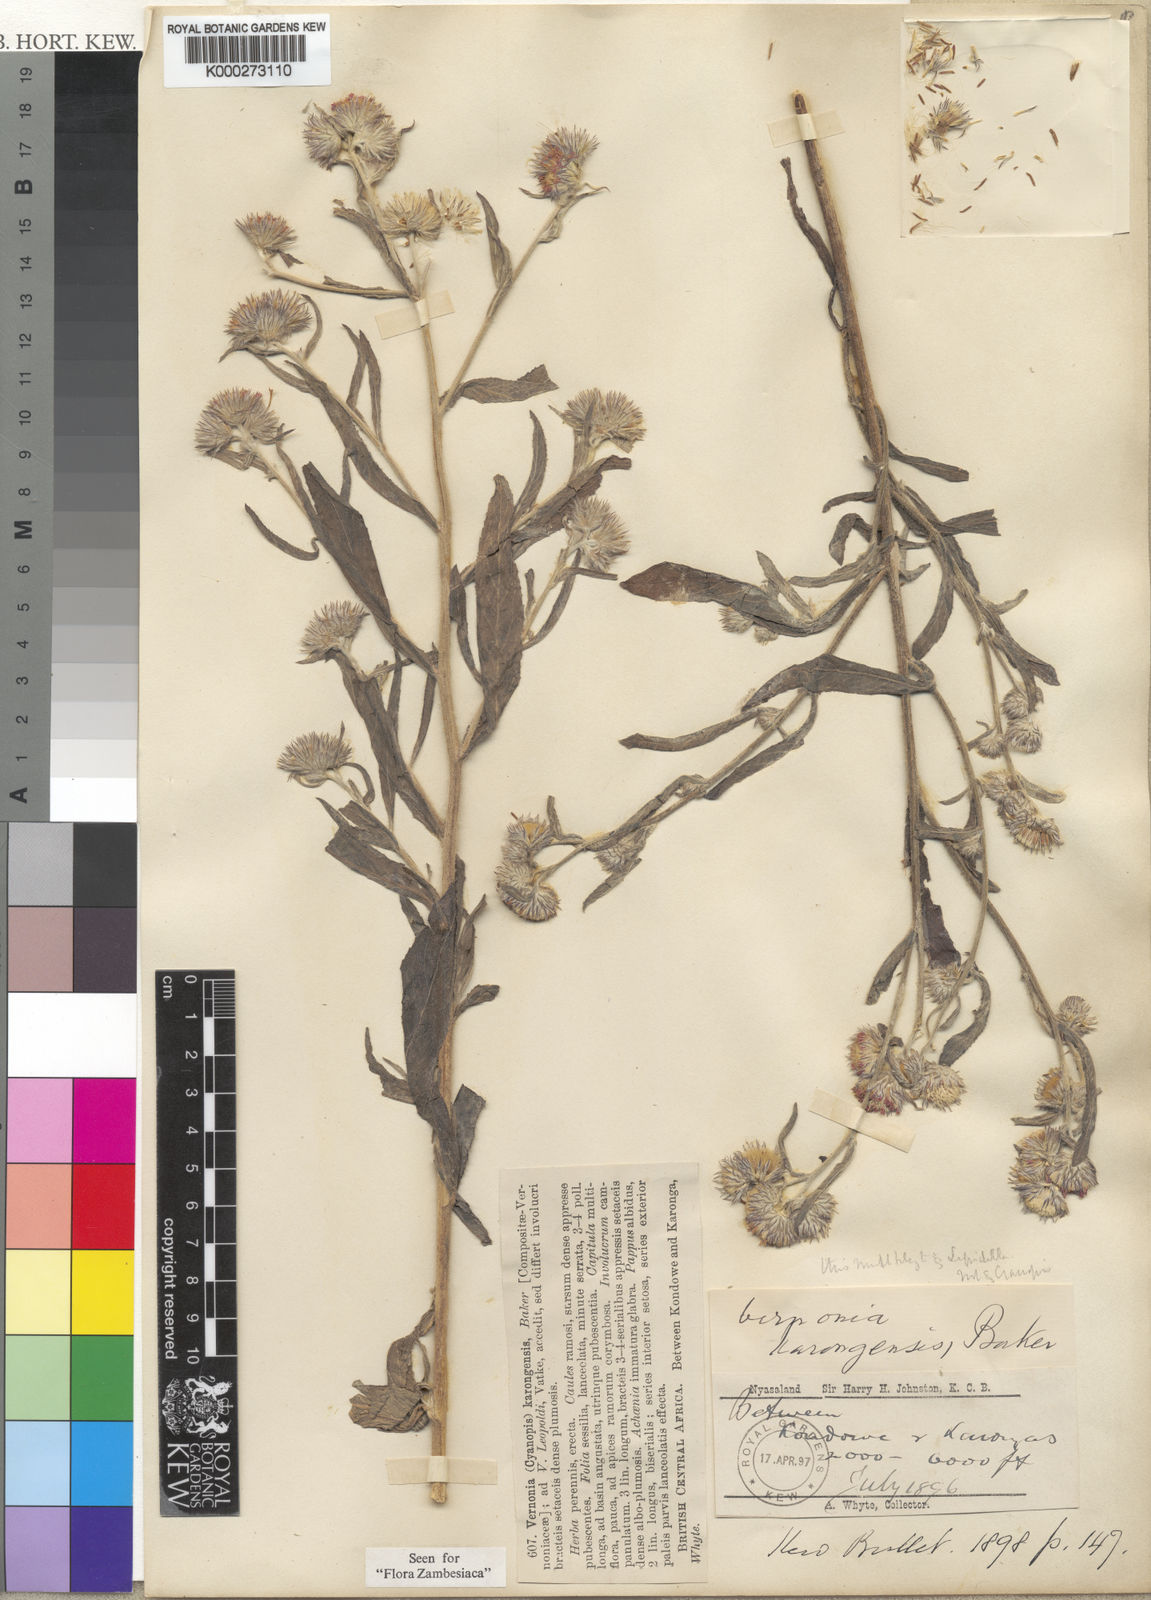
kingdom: Plantae
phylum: Tracheophyta
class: Magnoliopsida
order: Asterales
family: Asteraceae
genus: Vernoniastrum
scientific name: Vernoniastrum latifolium
